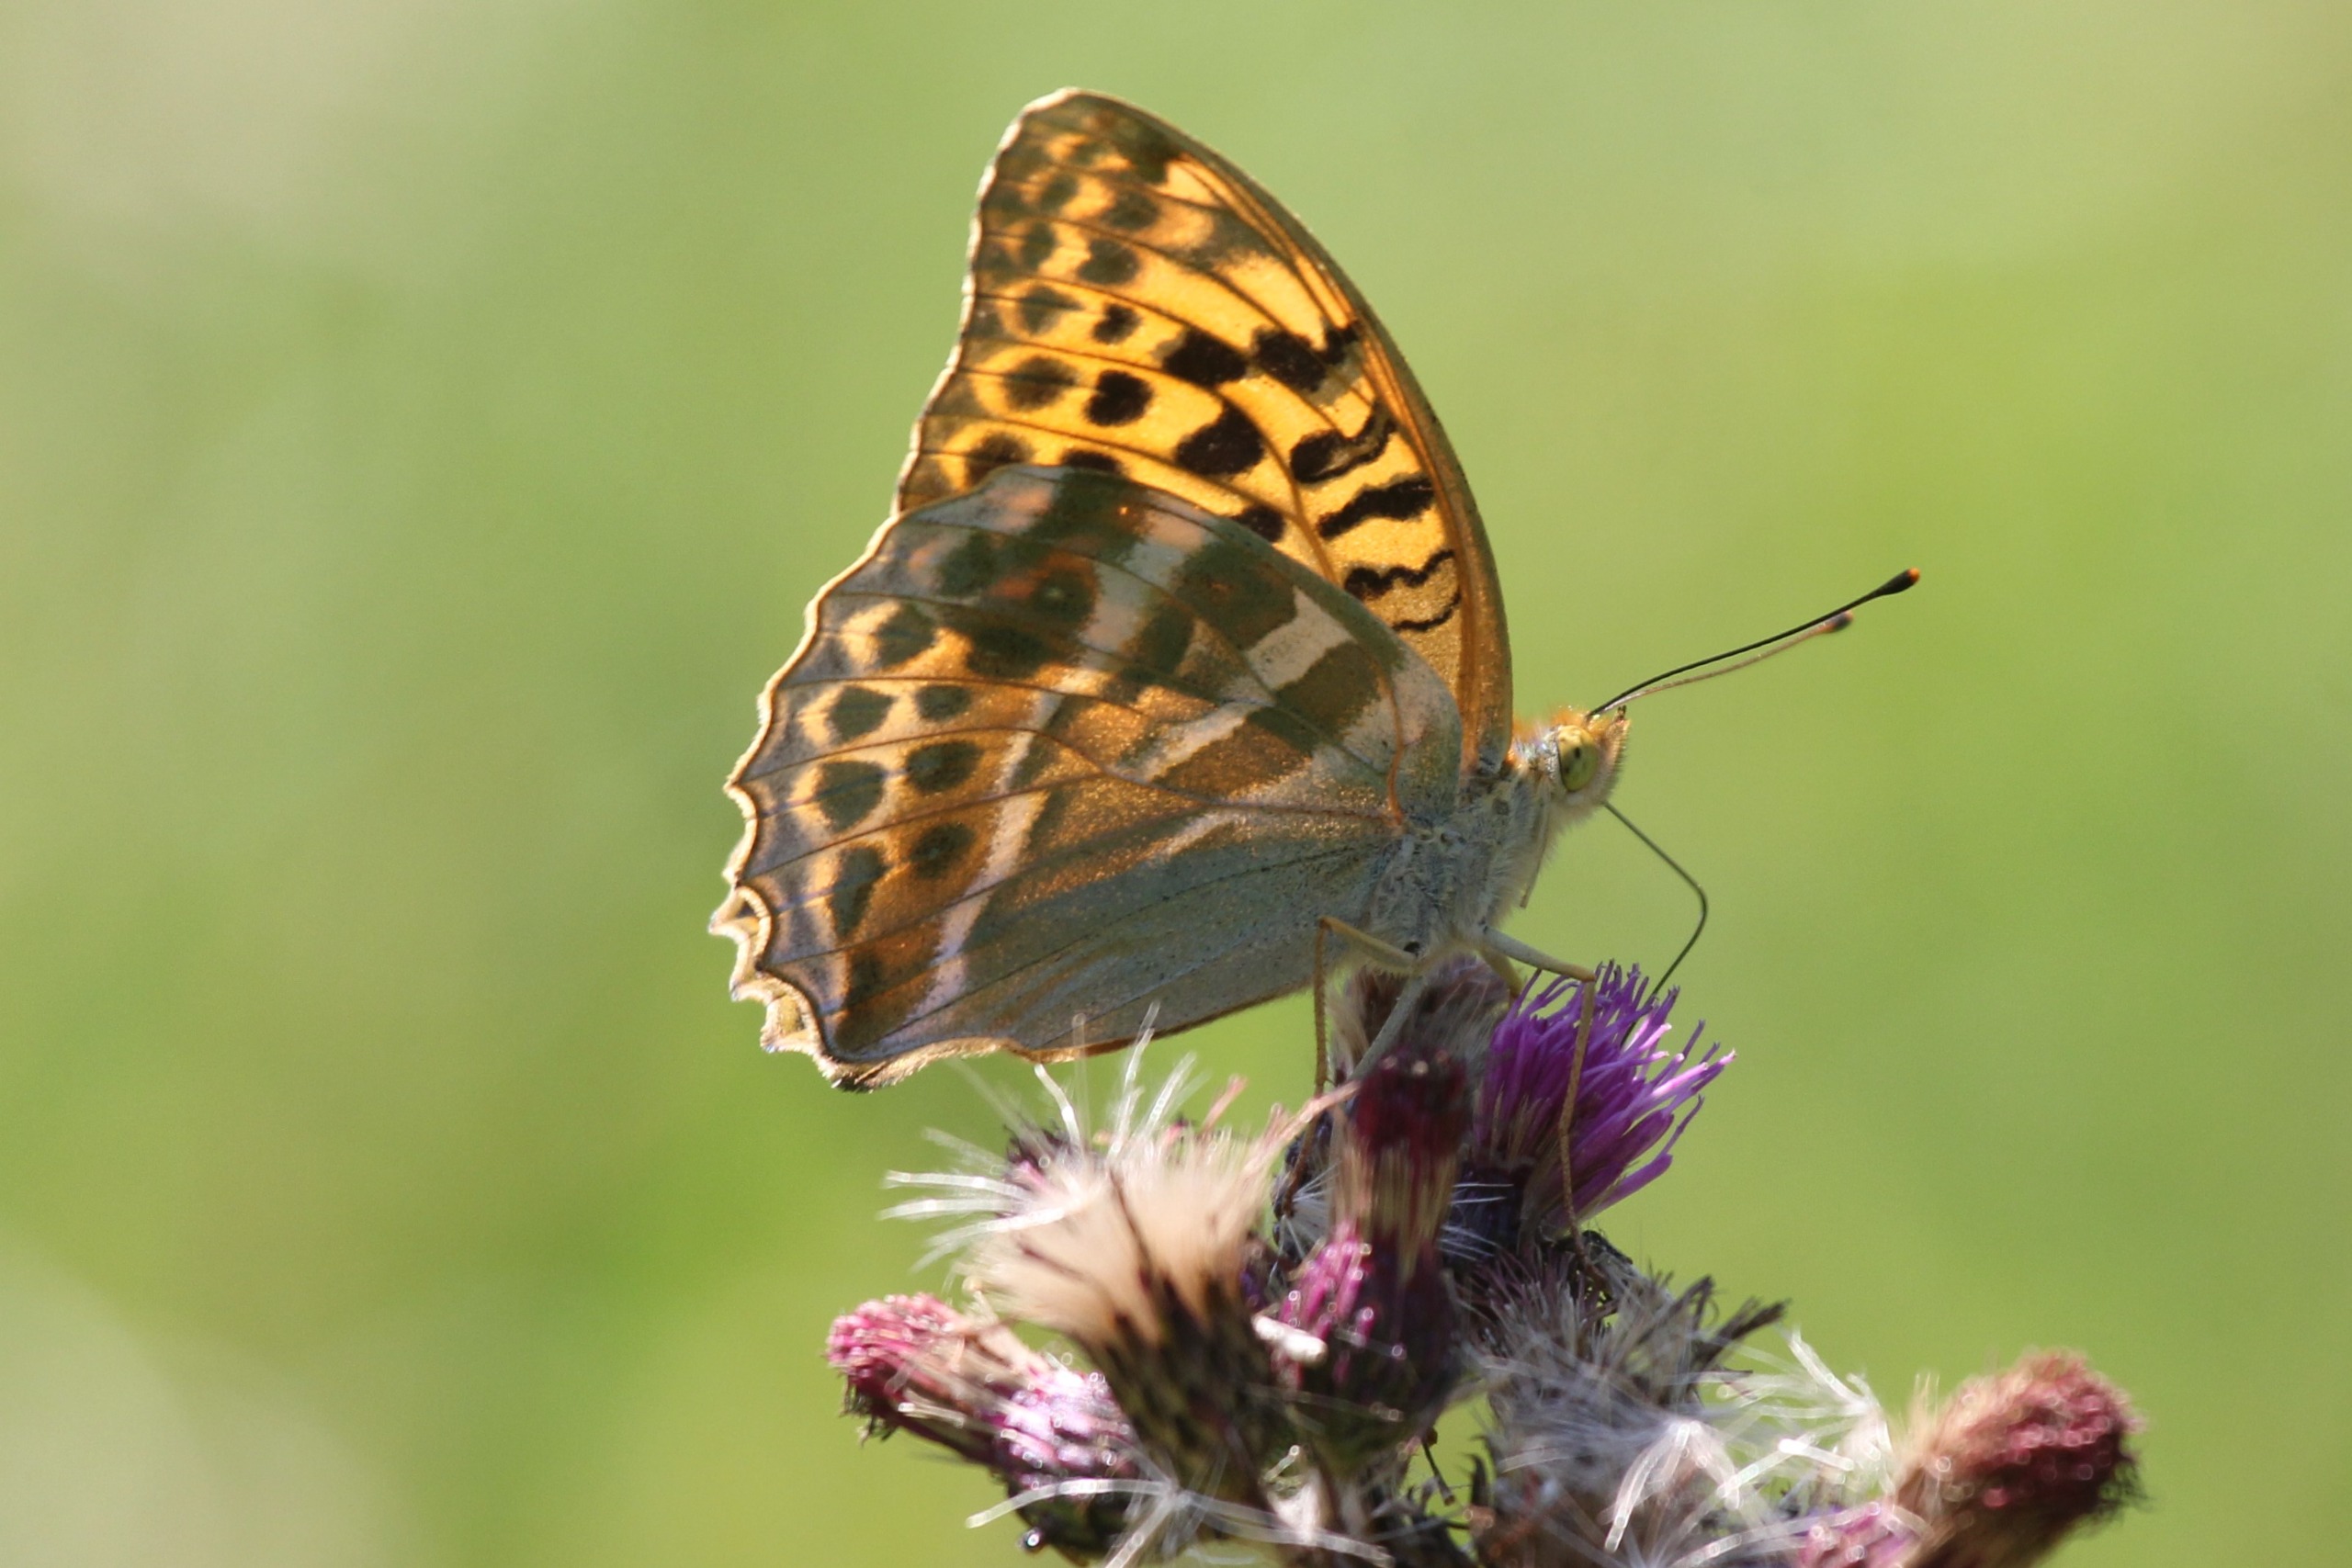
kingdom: Animalia
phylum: Arthropoda
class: Insecta
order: Lepidoptera
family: Nymphalidae
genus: Argynnis
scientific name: Argynnis paphia
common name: Kejserkåbe
